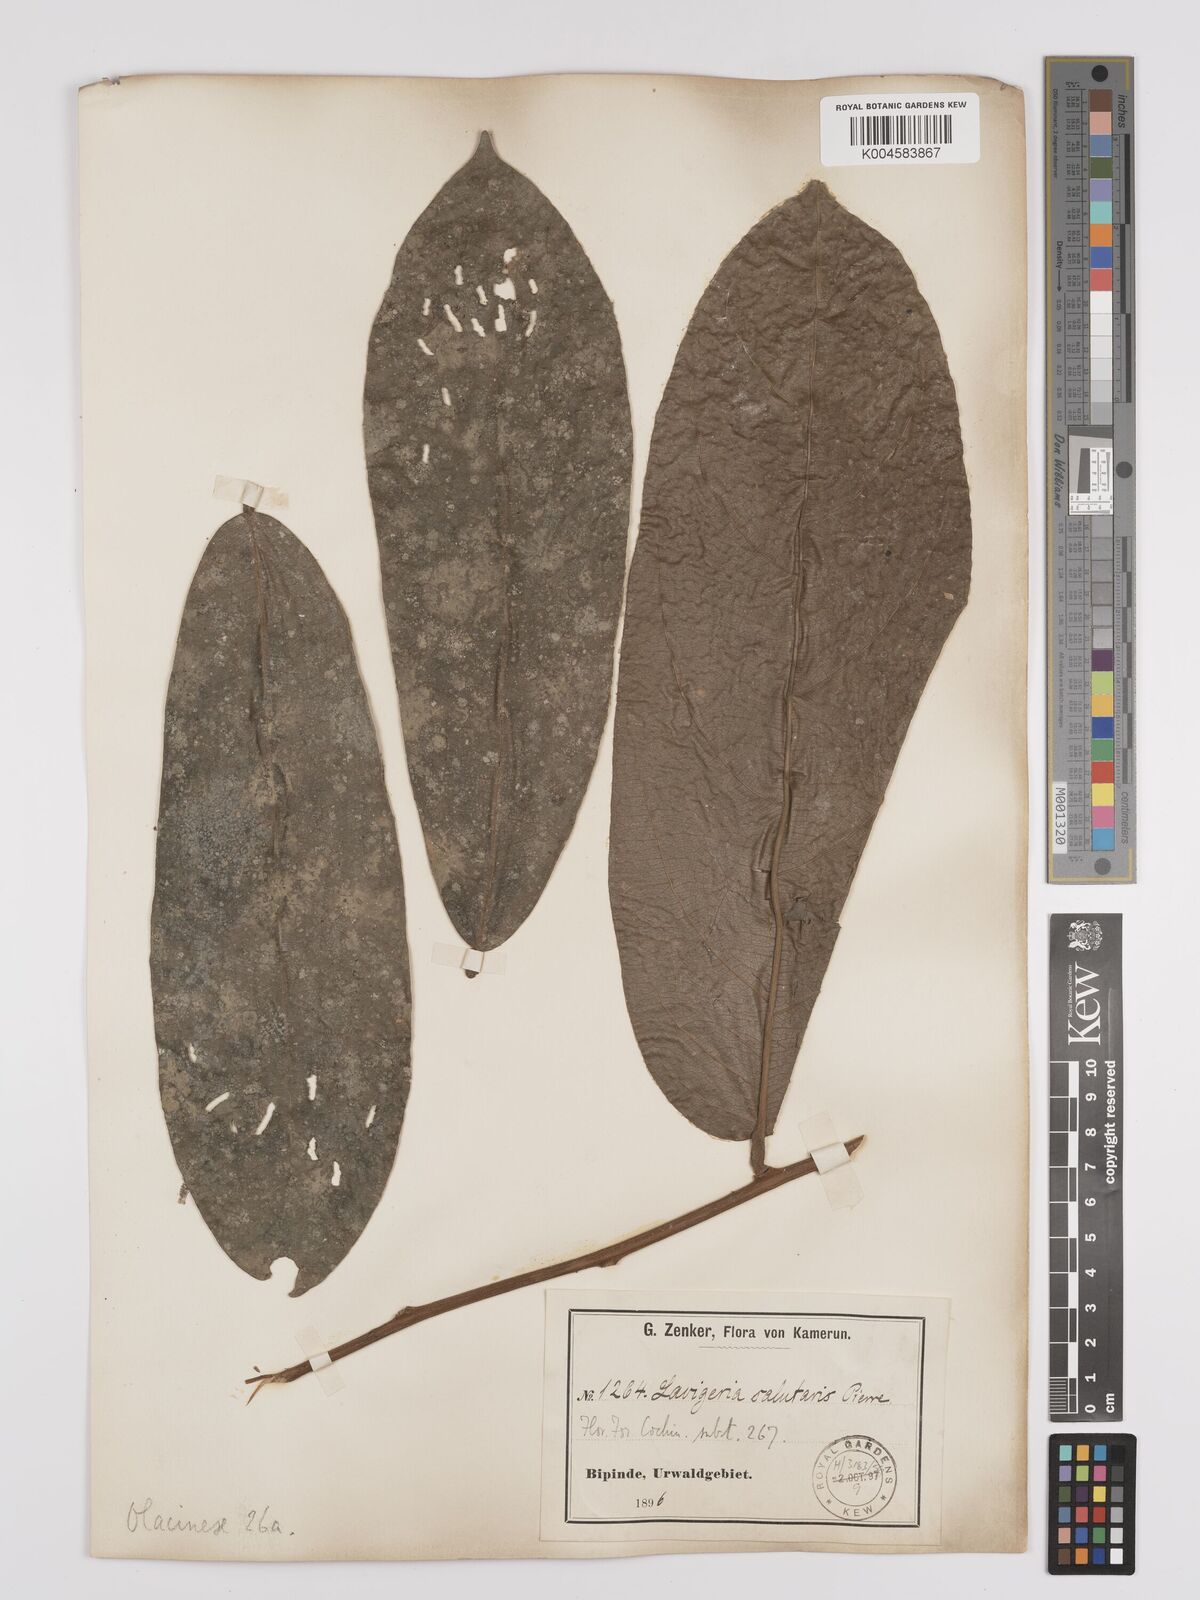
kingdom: Plantae
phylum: Tracheophyta
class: Magnoliopsida
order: Icacinales
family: Icacinaceae
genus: Lavigeria
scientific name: Lavigeria macrocarpa
